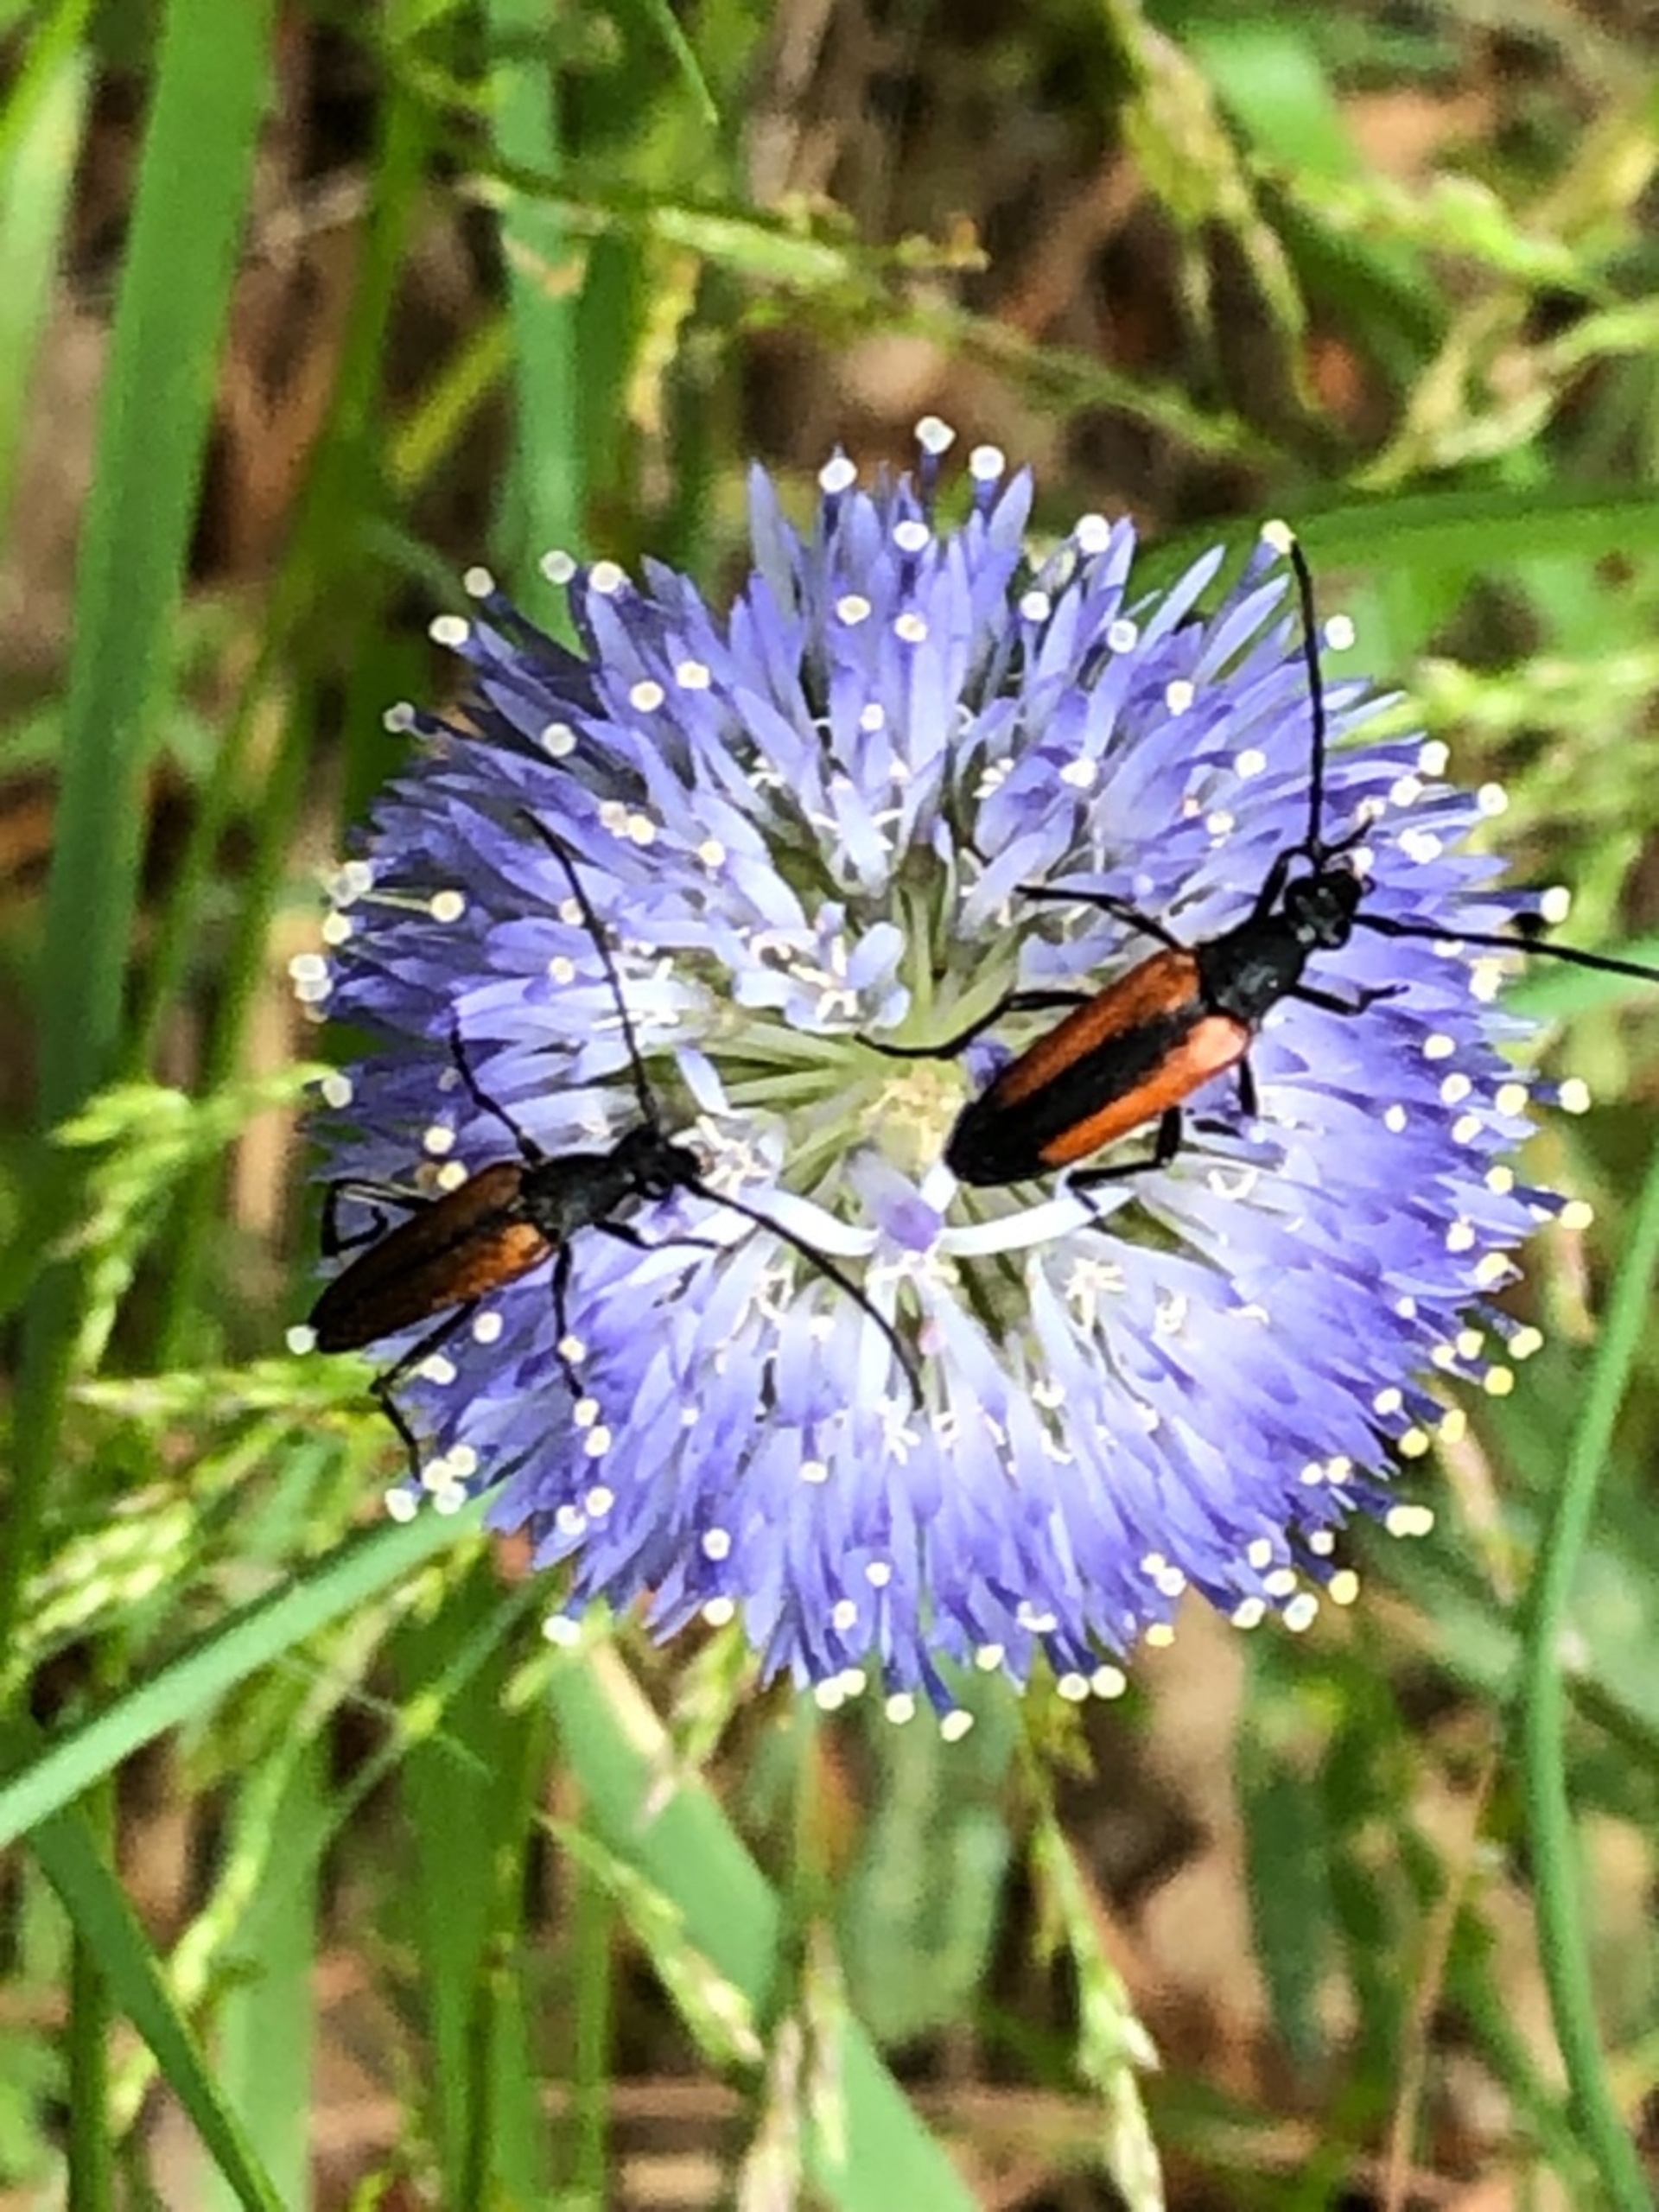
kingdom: Animalia
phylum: Arthropoda
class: Insecta
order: Coleoptera
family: Cerambycidae
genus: Stenurella
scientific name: Stenurella melanura
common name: Sortsømmet blomsterbuk
